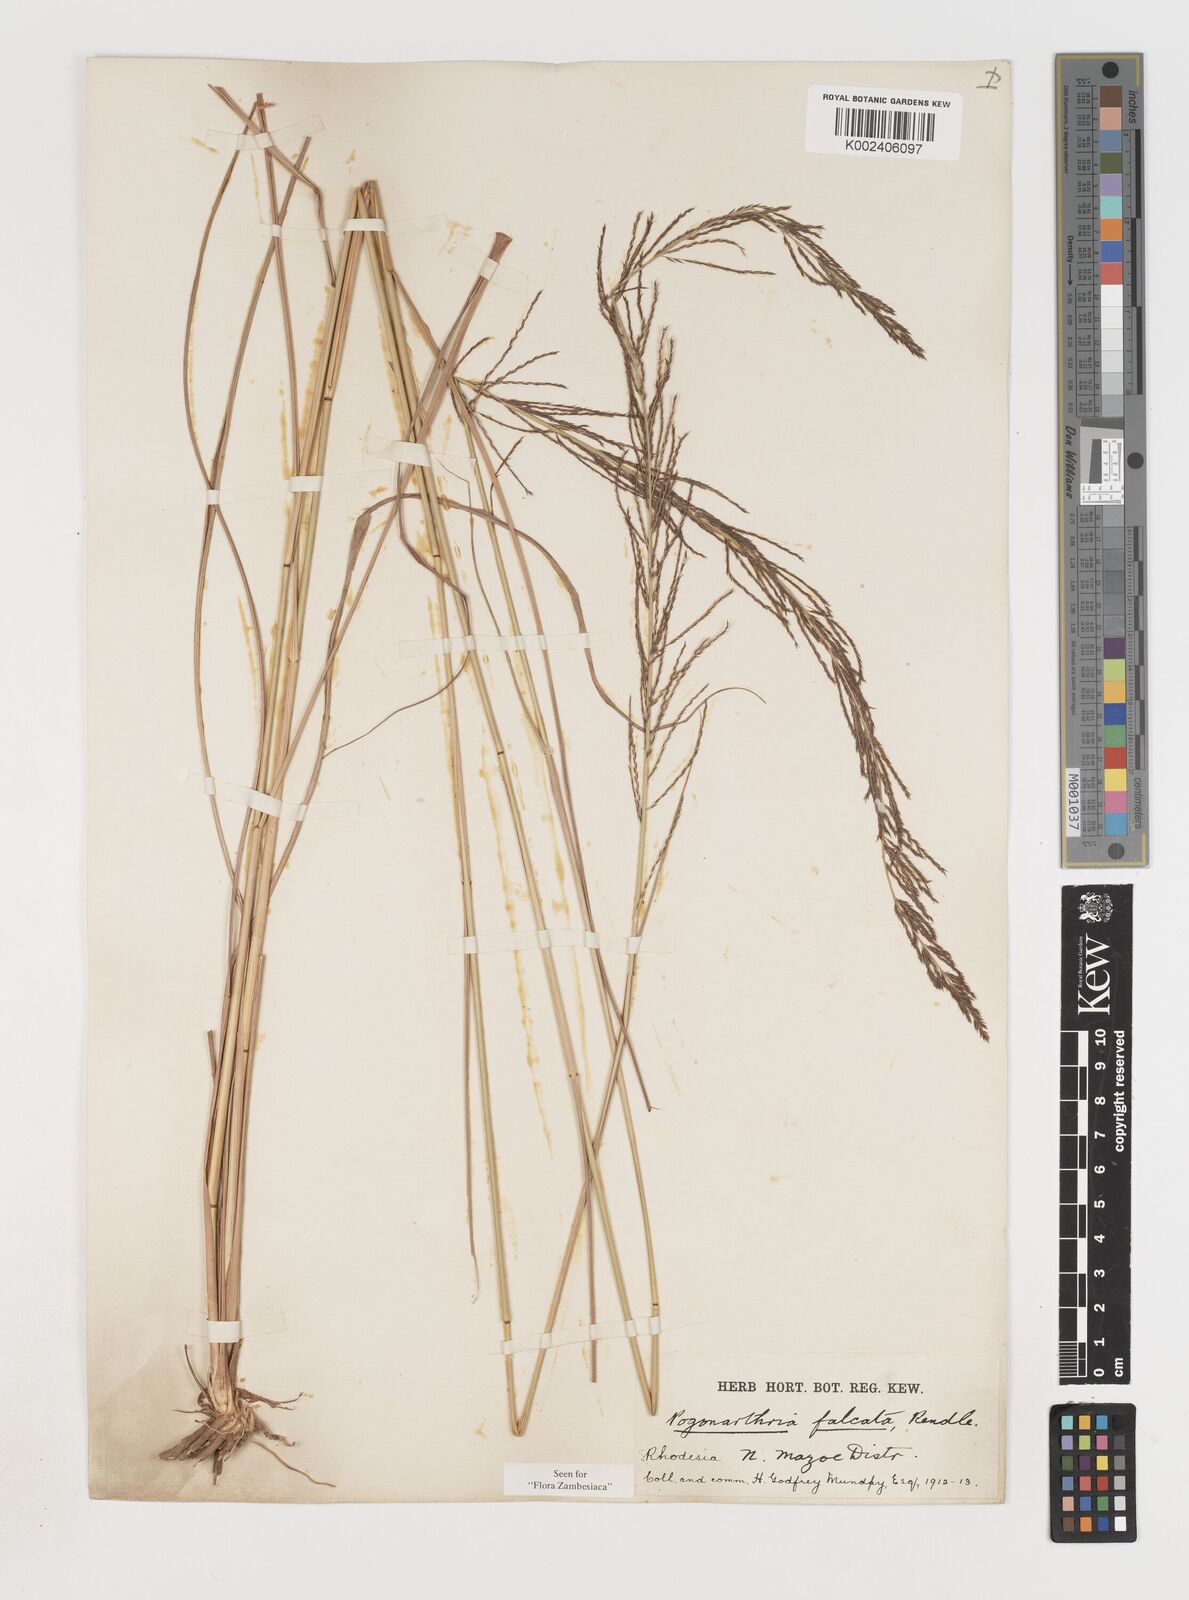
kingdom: Plantae
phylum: Tracheophyta
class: Liliopsida
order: Poales
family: Poaceae
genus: Pogonarthria
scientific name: Pogonarthria squarrosa
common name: Grass
